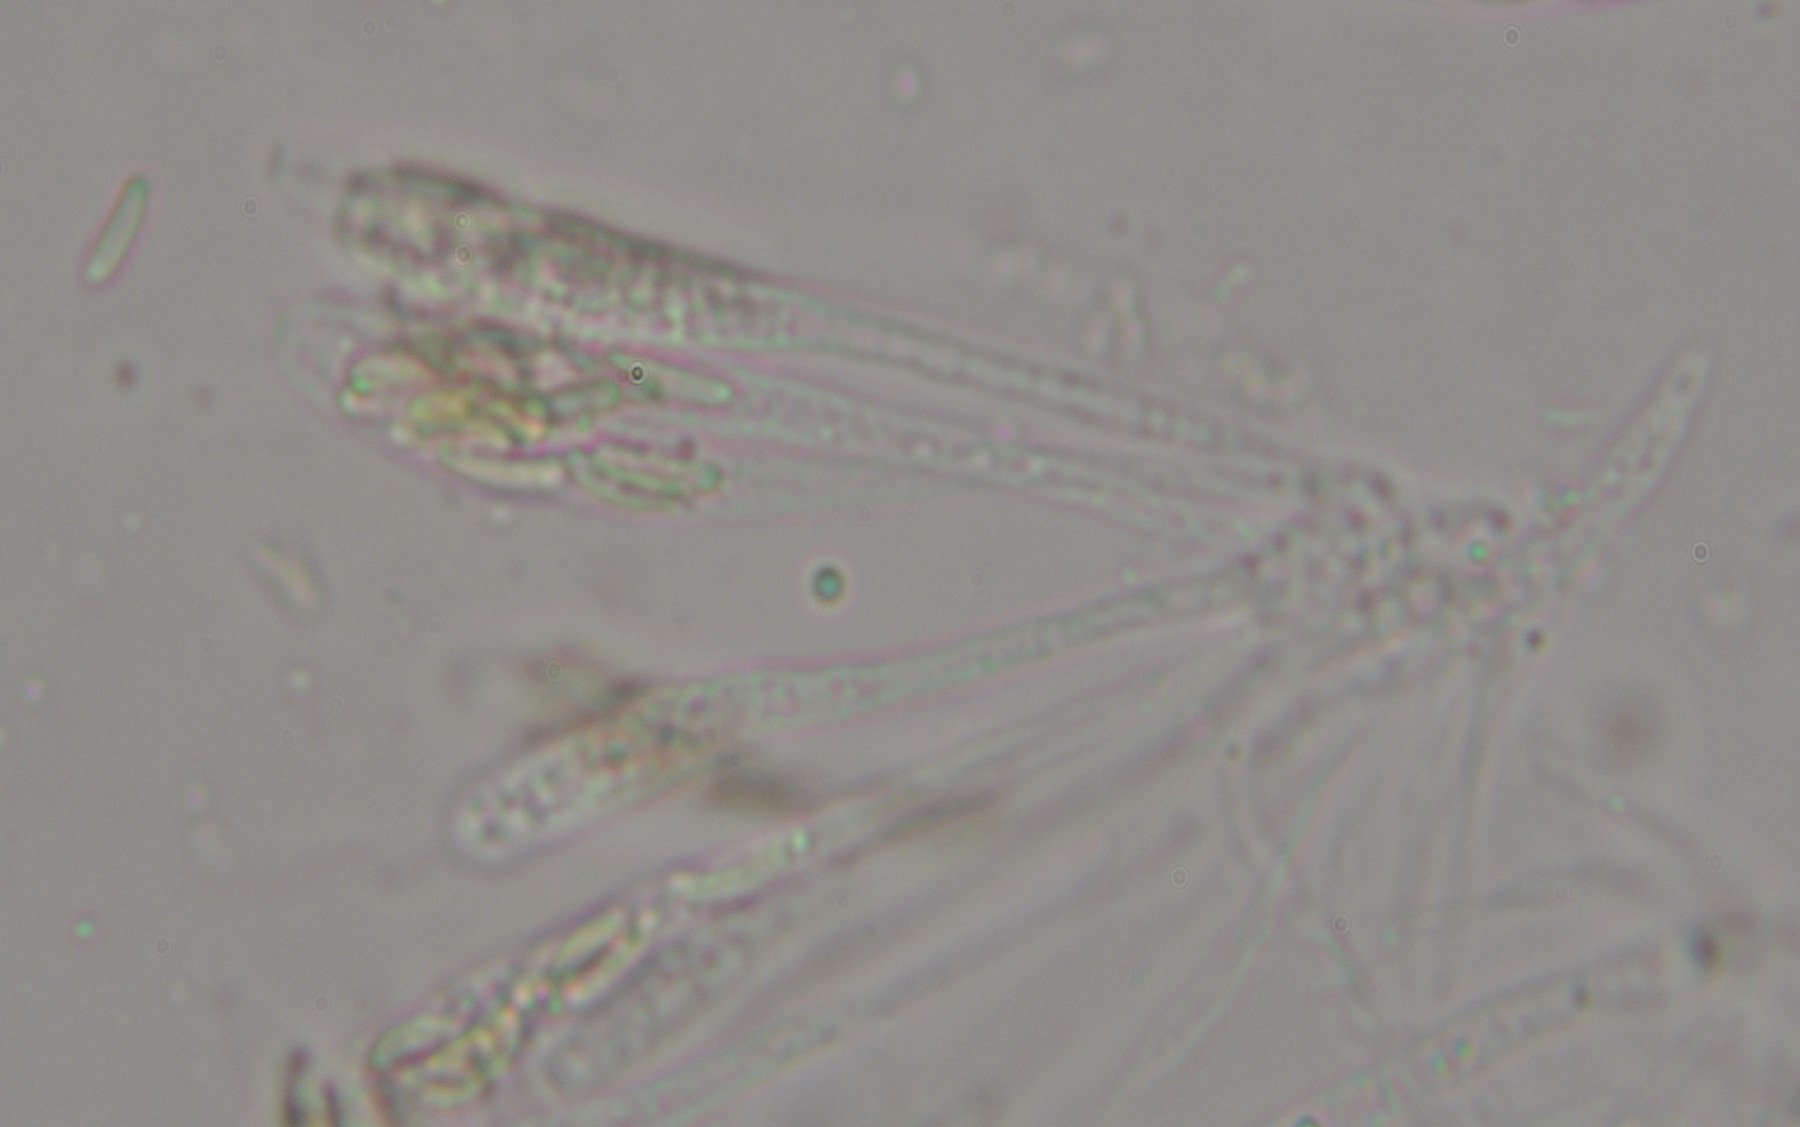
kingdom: Fungi
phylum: Ascomycota
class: Sordariomycetes
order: Xylariales
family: Diatrypaceae
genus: Diatrype
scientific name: Diatrype bullata
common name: pile-kulskorpe
